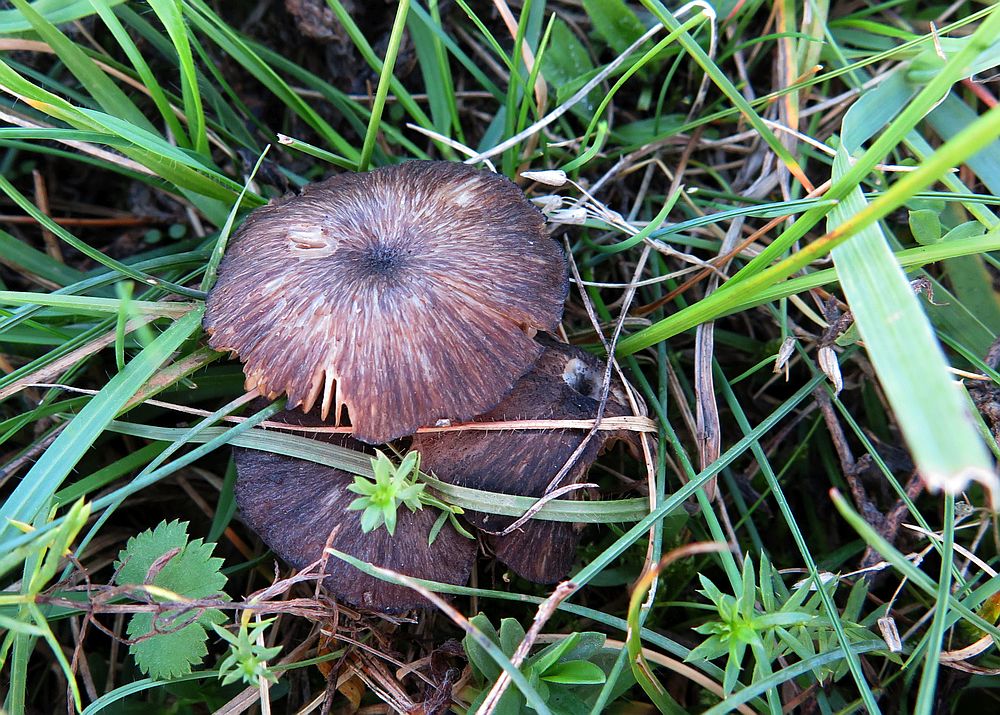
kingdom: Fungi
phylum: Basidiomycota
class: Agaricomycetes
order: Agaricales
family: Entolomataceae
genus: Entoloma
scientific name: Entoloma
